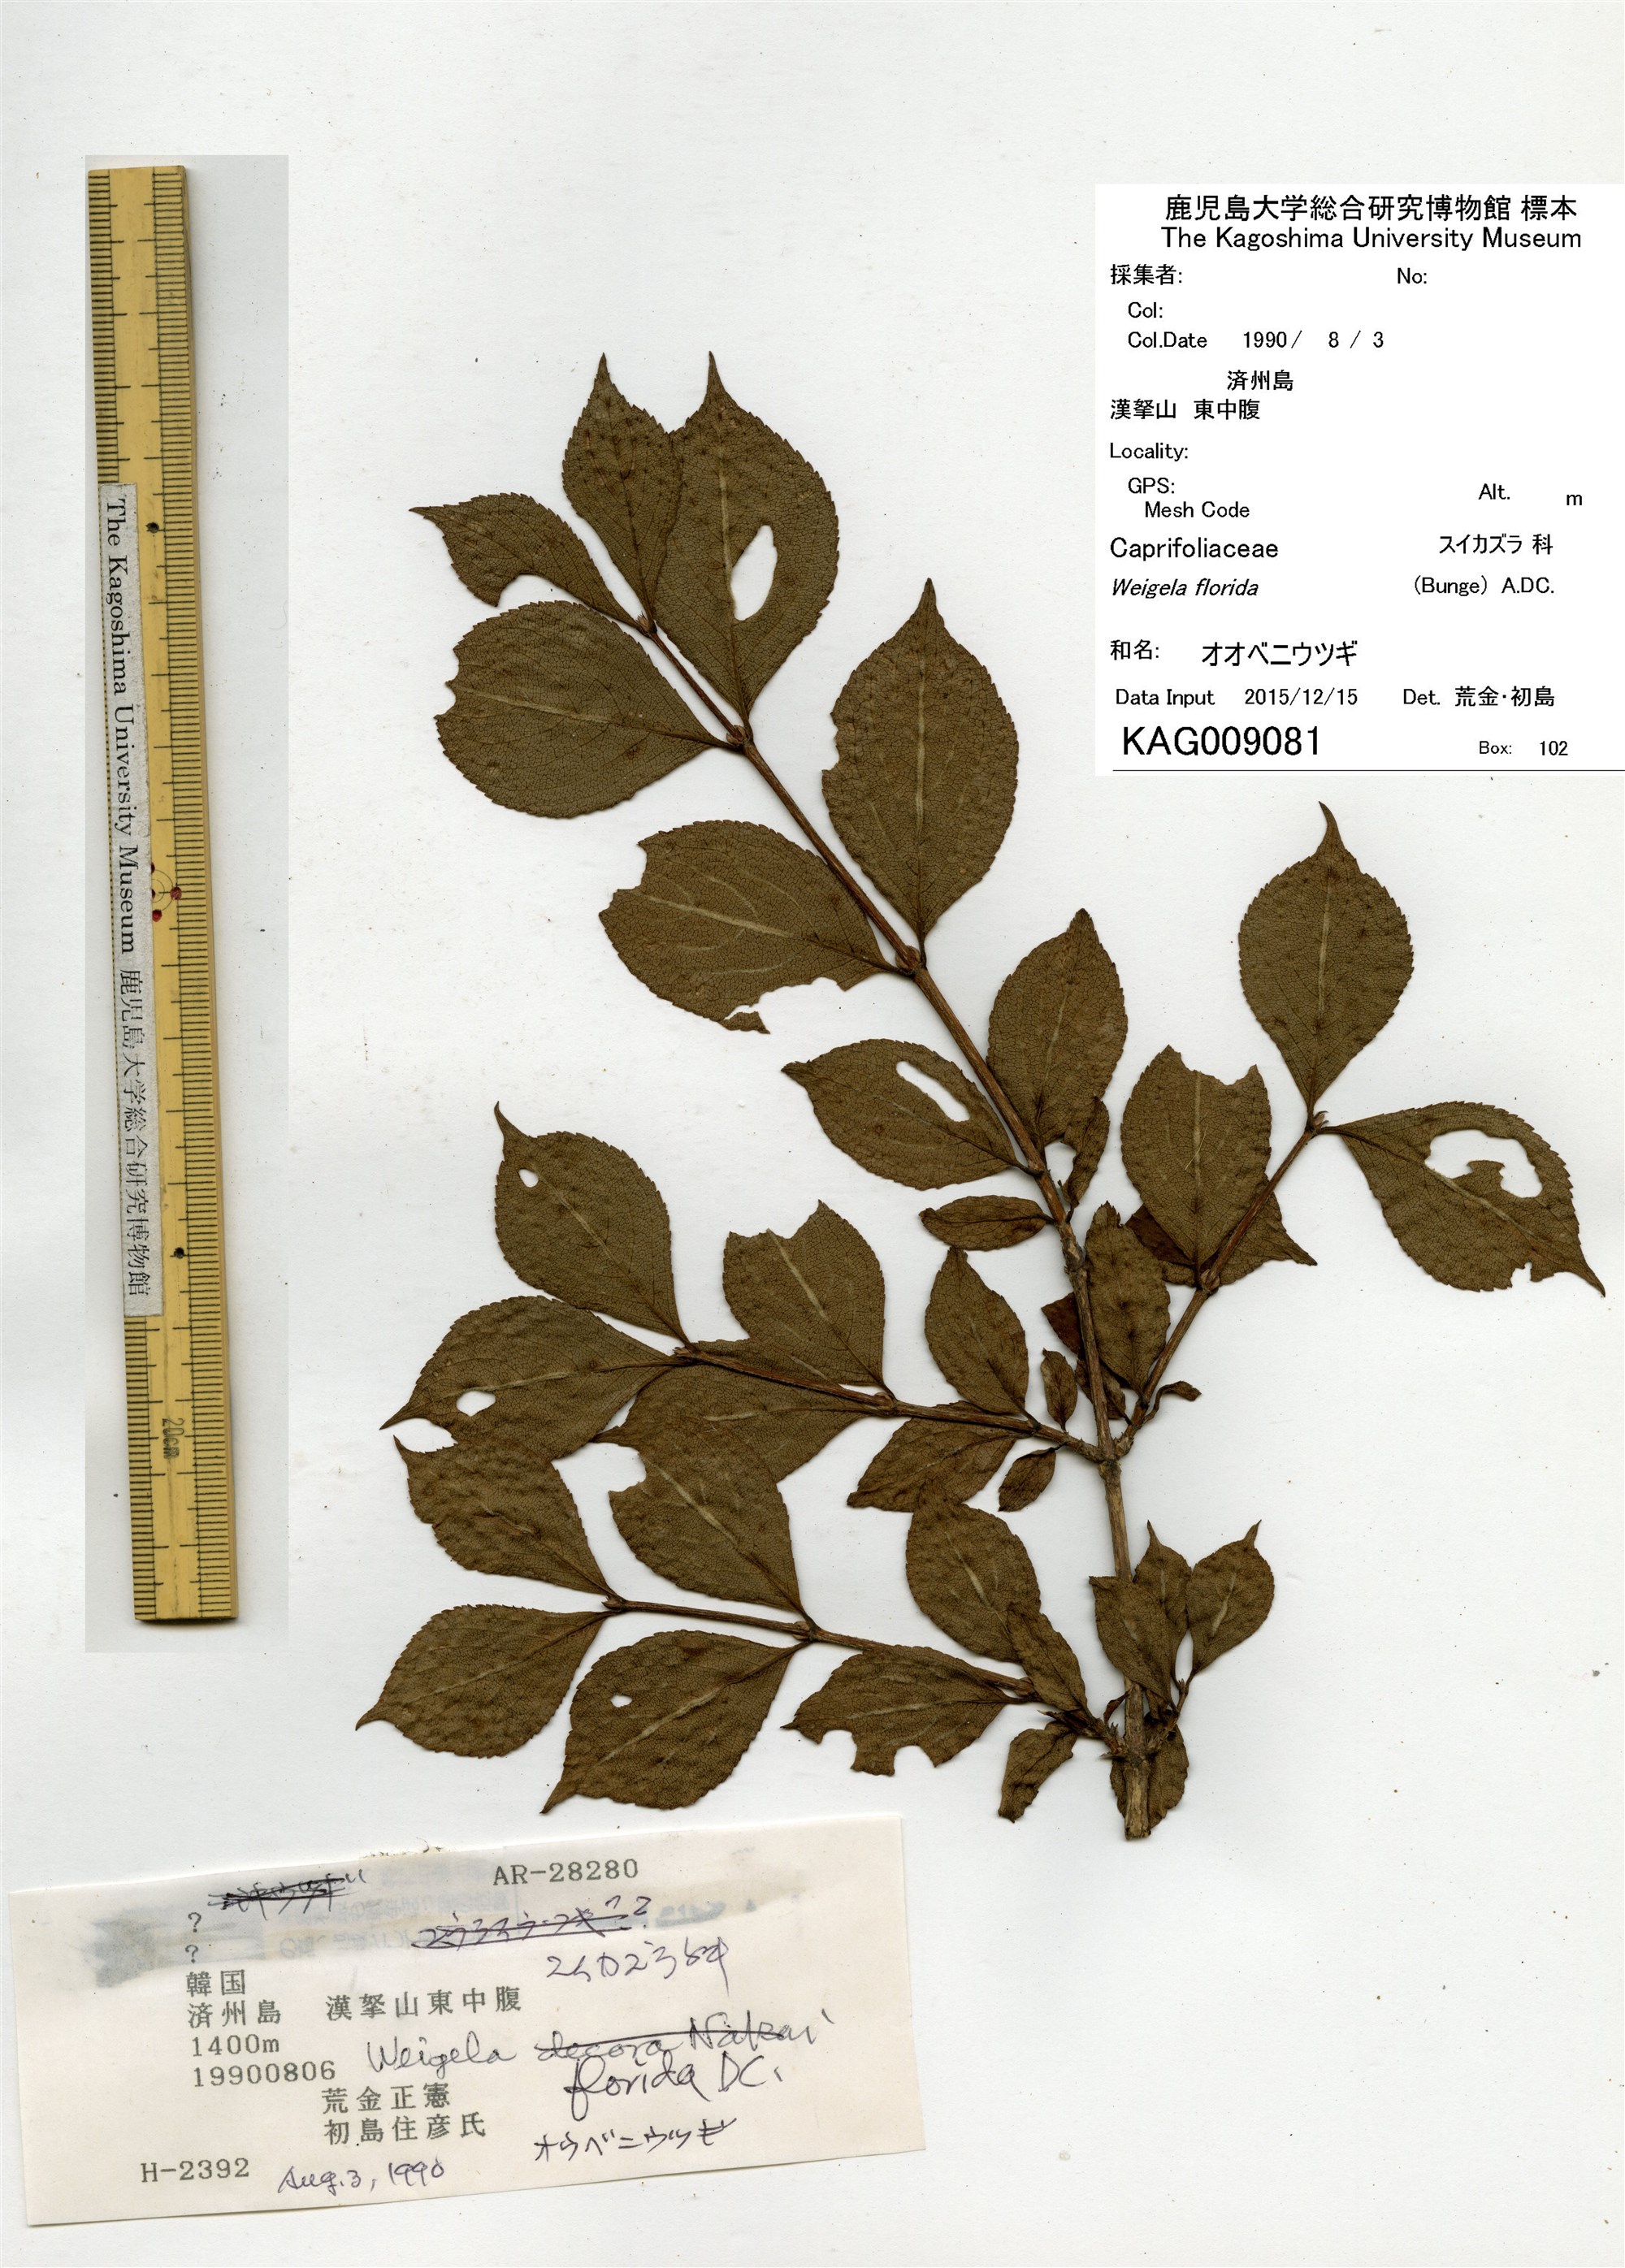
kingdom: Plantae
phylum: Tracheophyta
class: Magnoliopsida
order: Dipsacales
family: Caprifoliaceae
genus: Weigela
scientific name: Weigela florida
